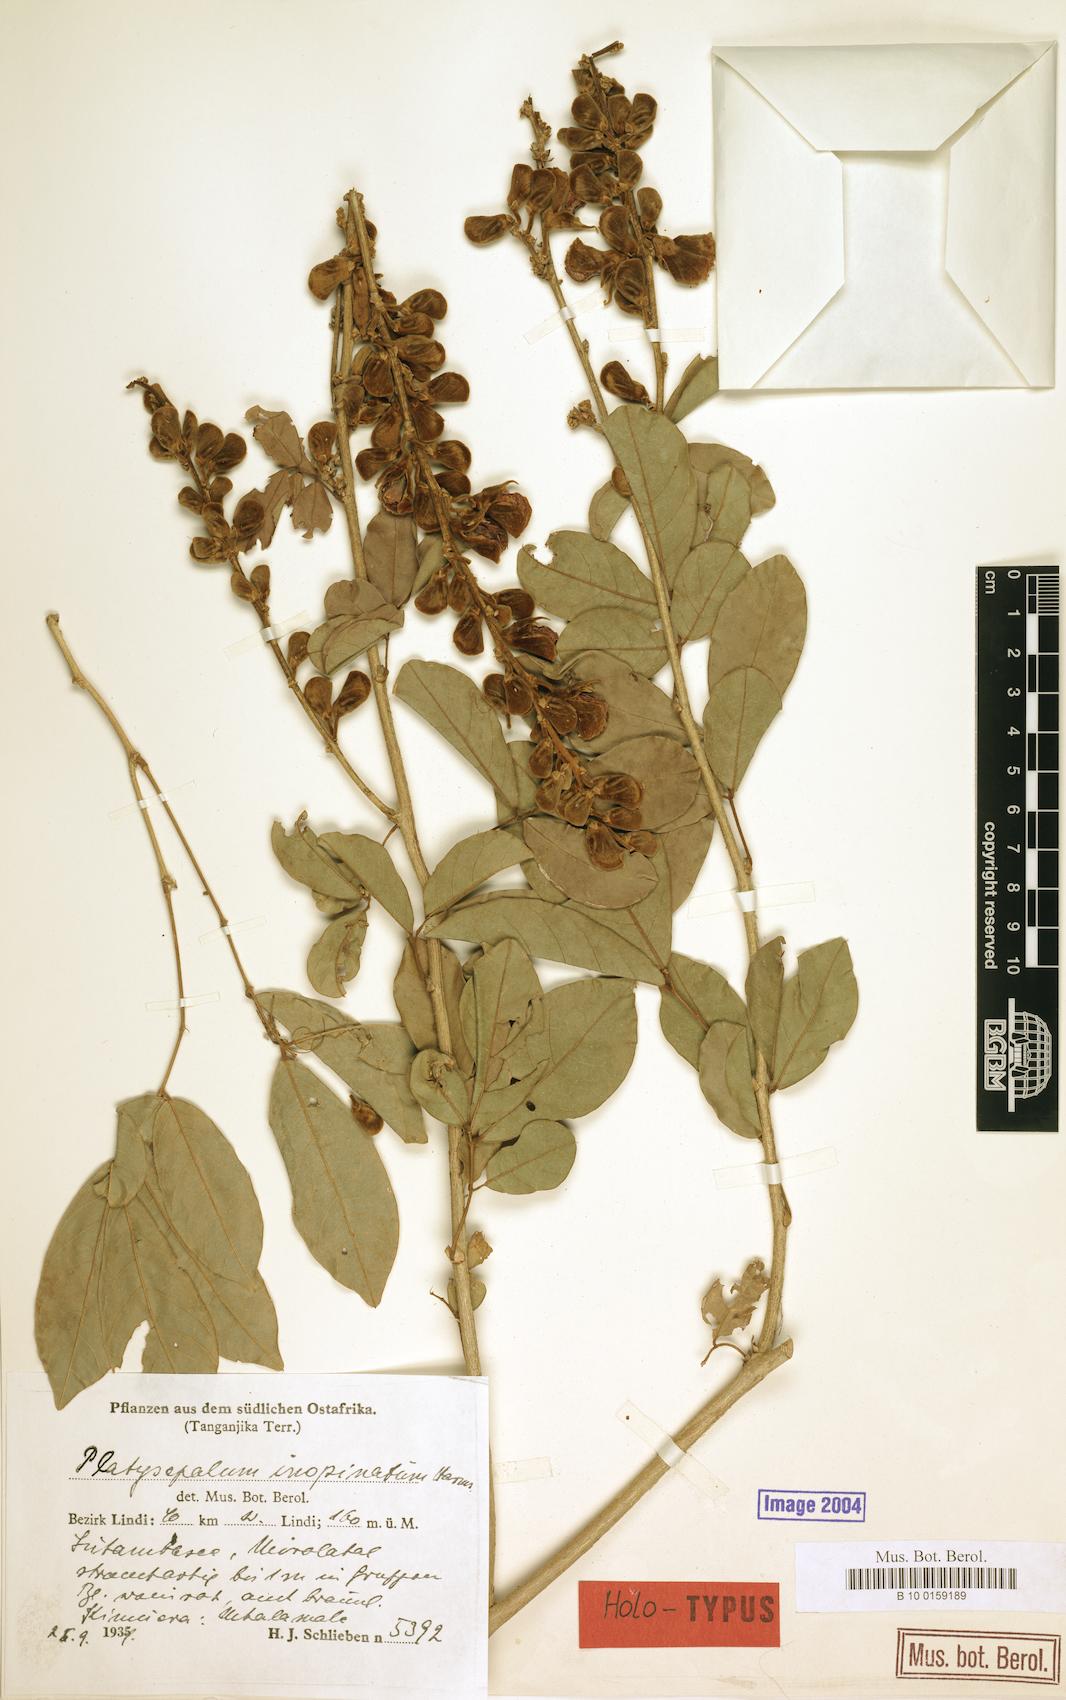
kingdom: Plantae
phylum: Tracheophyta
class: Magnoliopsida
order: Fabales
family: Fabaceae
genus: Platysepalum
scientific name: Platysepalum inopinatum
